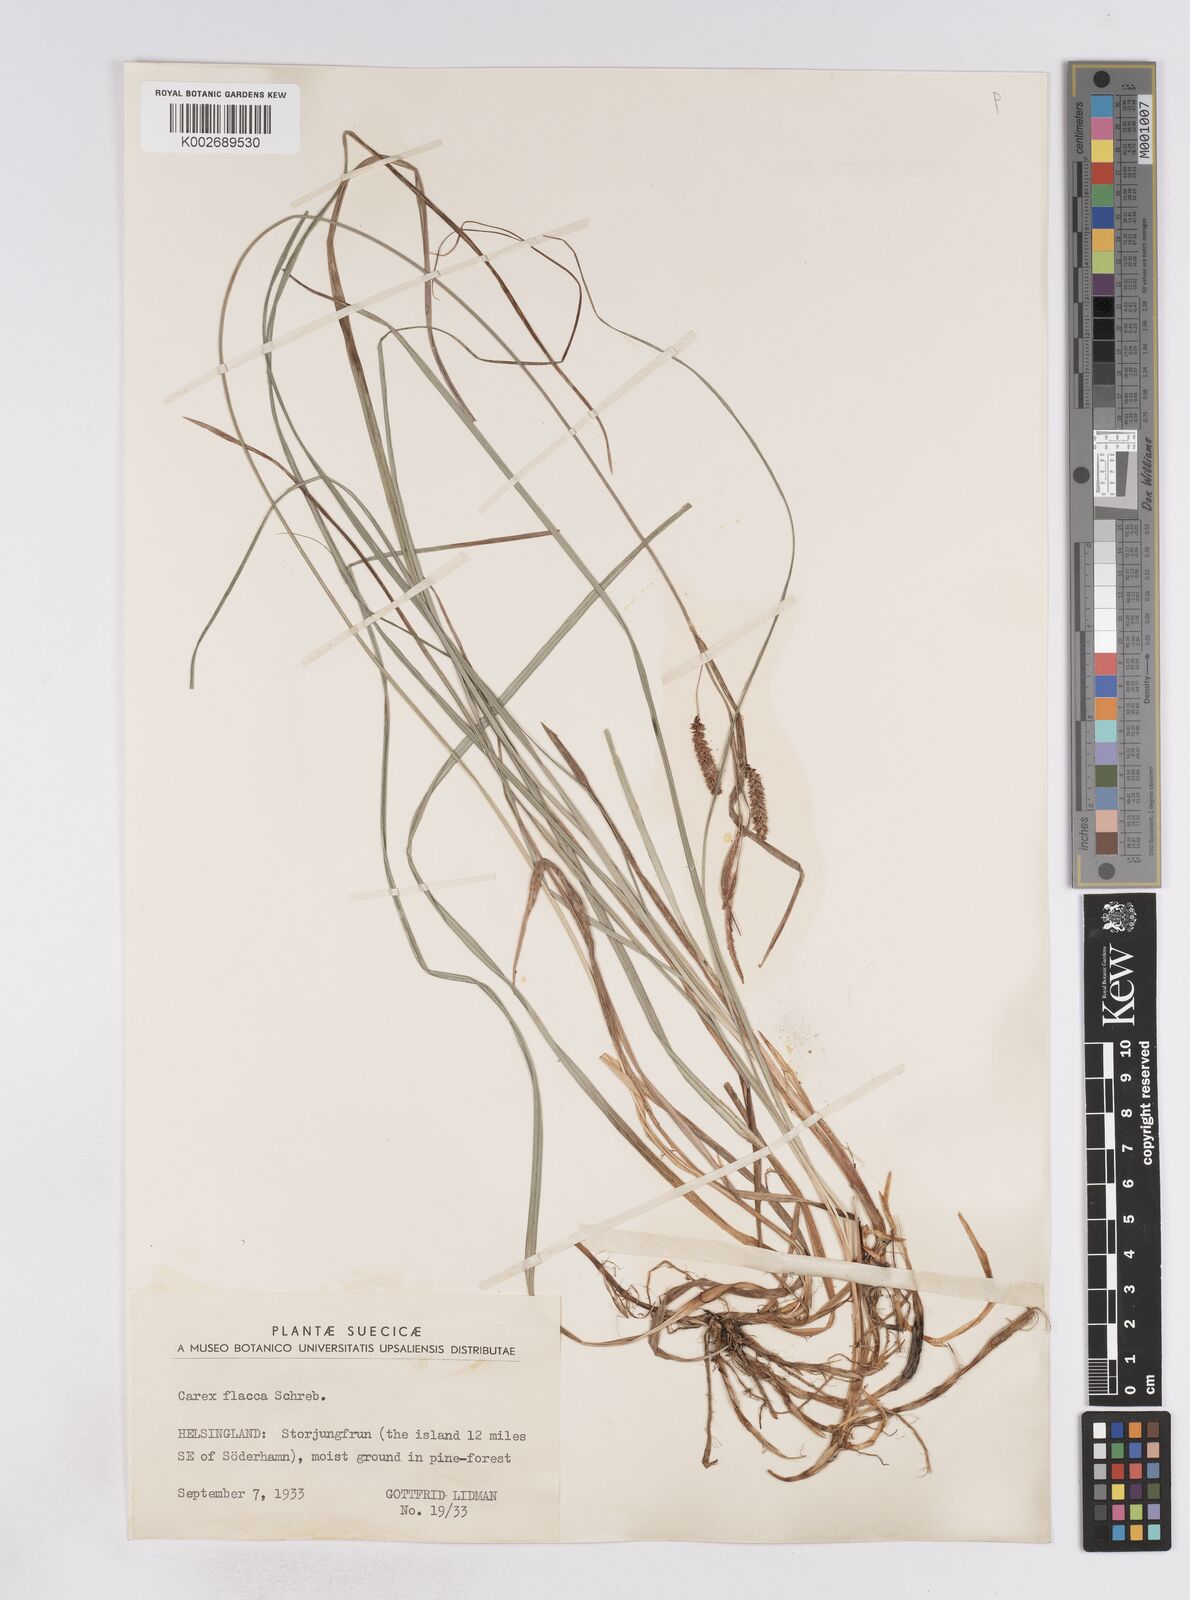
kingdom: Plantae
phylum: Tracheophyta
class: Liliopsida
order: Poales
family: Cyperaceae
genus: Carex
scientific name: Carex flacca
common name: Glaucous sedge
